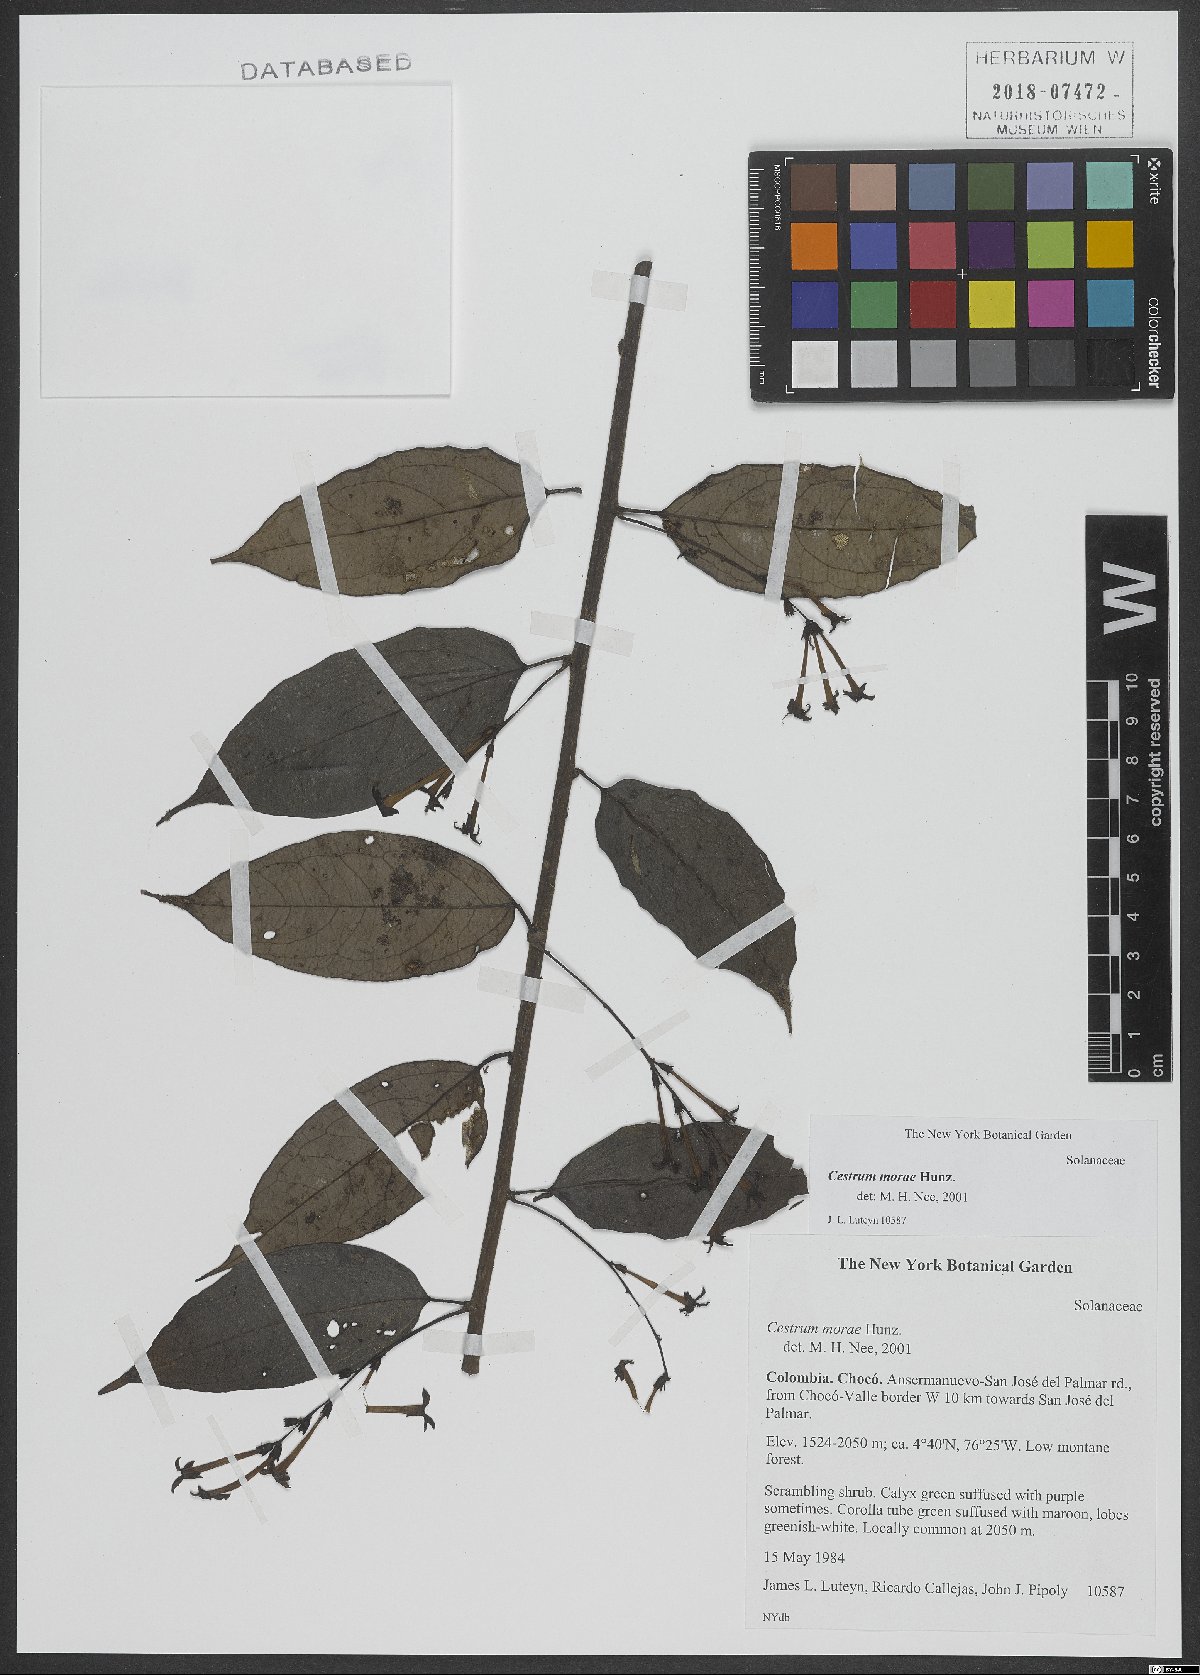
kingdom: Plantae
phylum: Tracheophyta
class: Magnoliopsida
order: Solanales
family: Solanaceae
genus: Cestrum
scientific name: Cestrum
